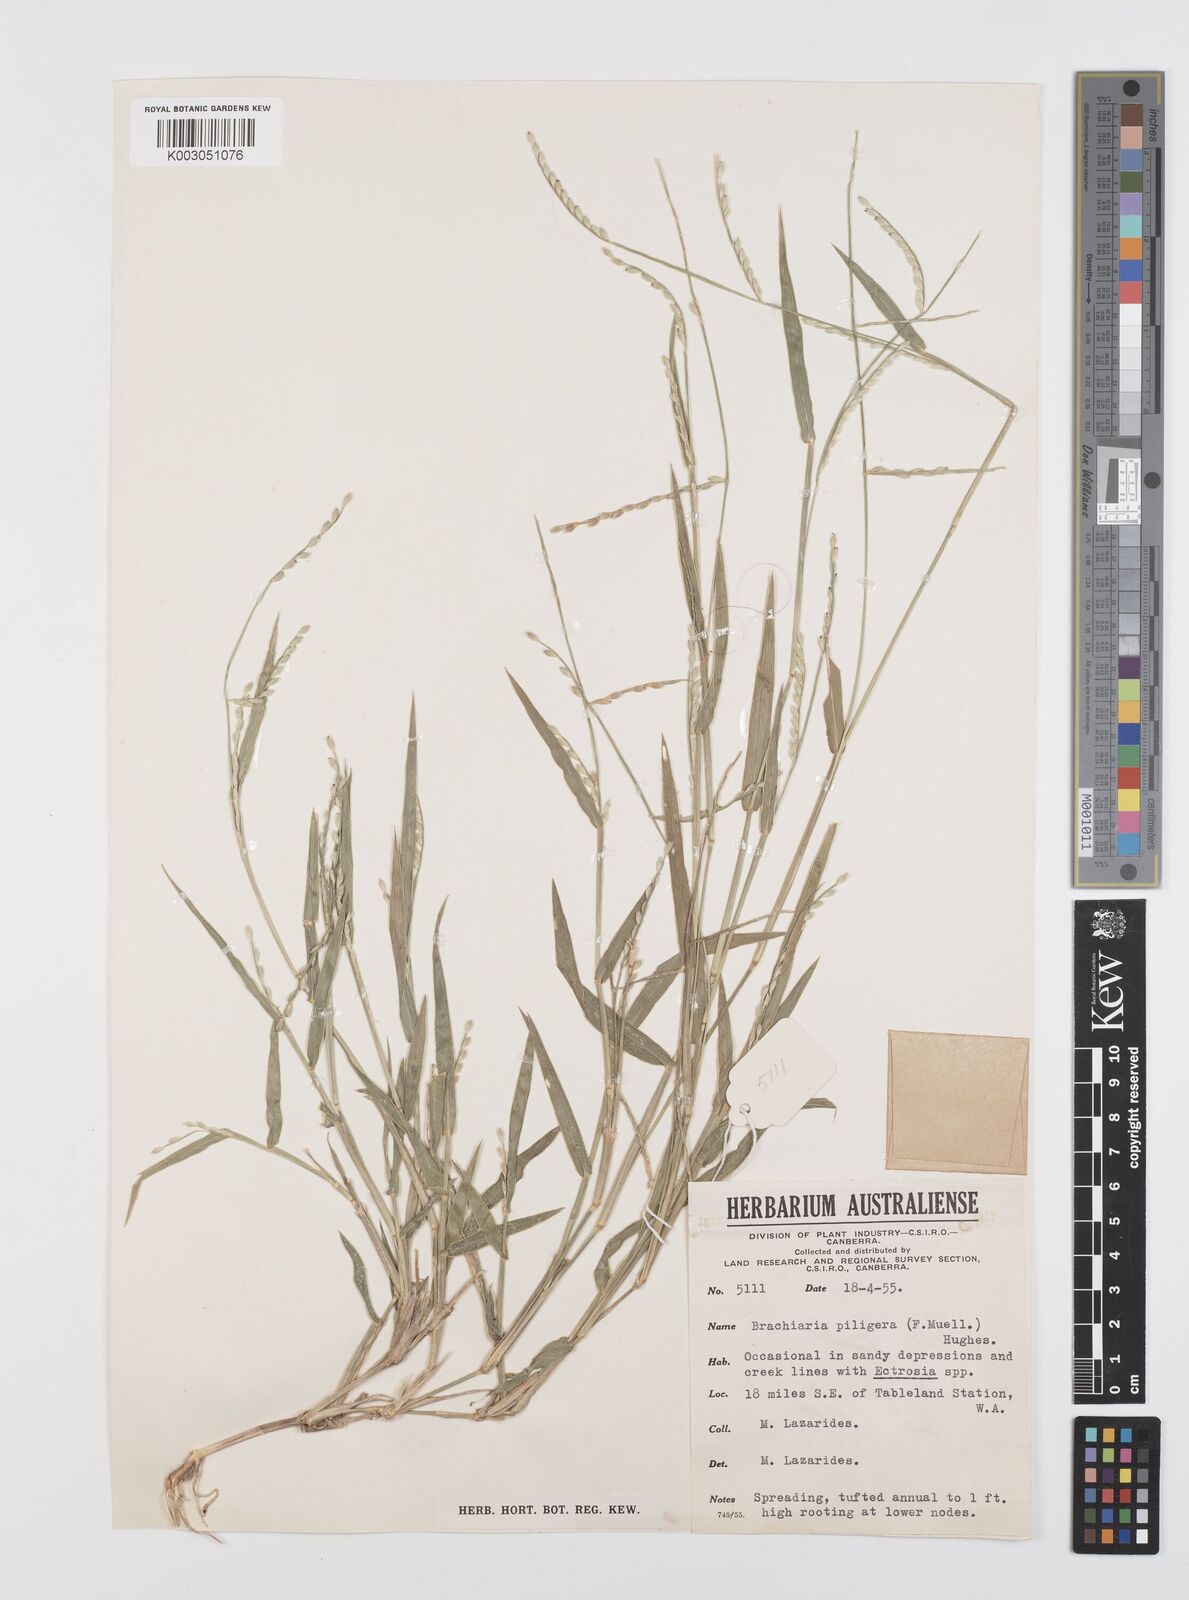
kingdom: Plantae
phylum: Tracheophyta
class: Liliopsida
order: Poales
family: Poaceae
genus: Urochloa
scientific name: Urochloa piligera
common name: Wattle signalgrass
